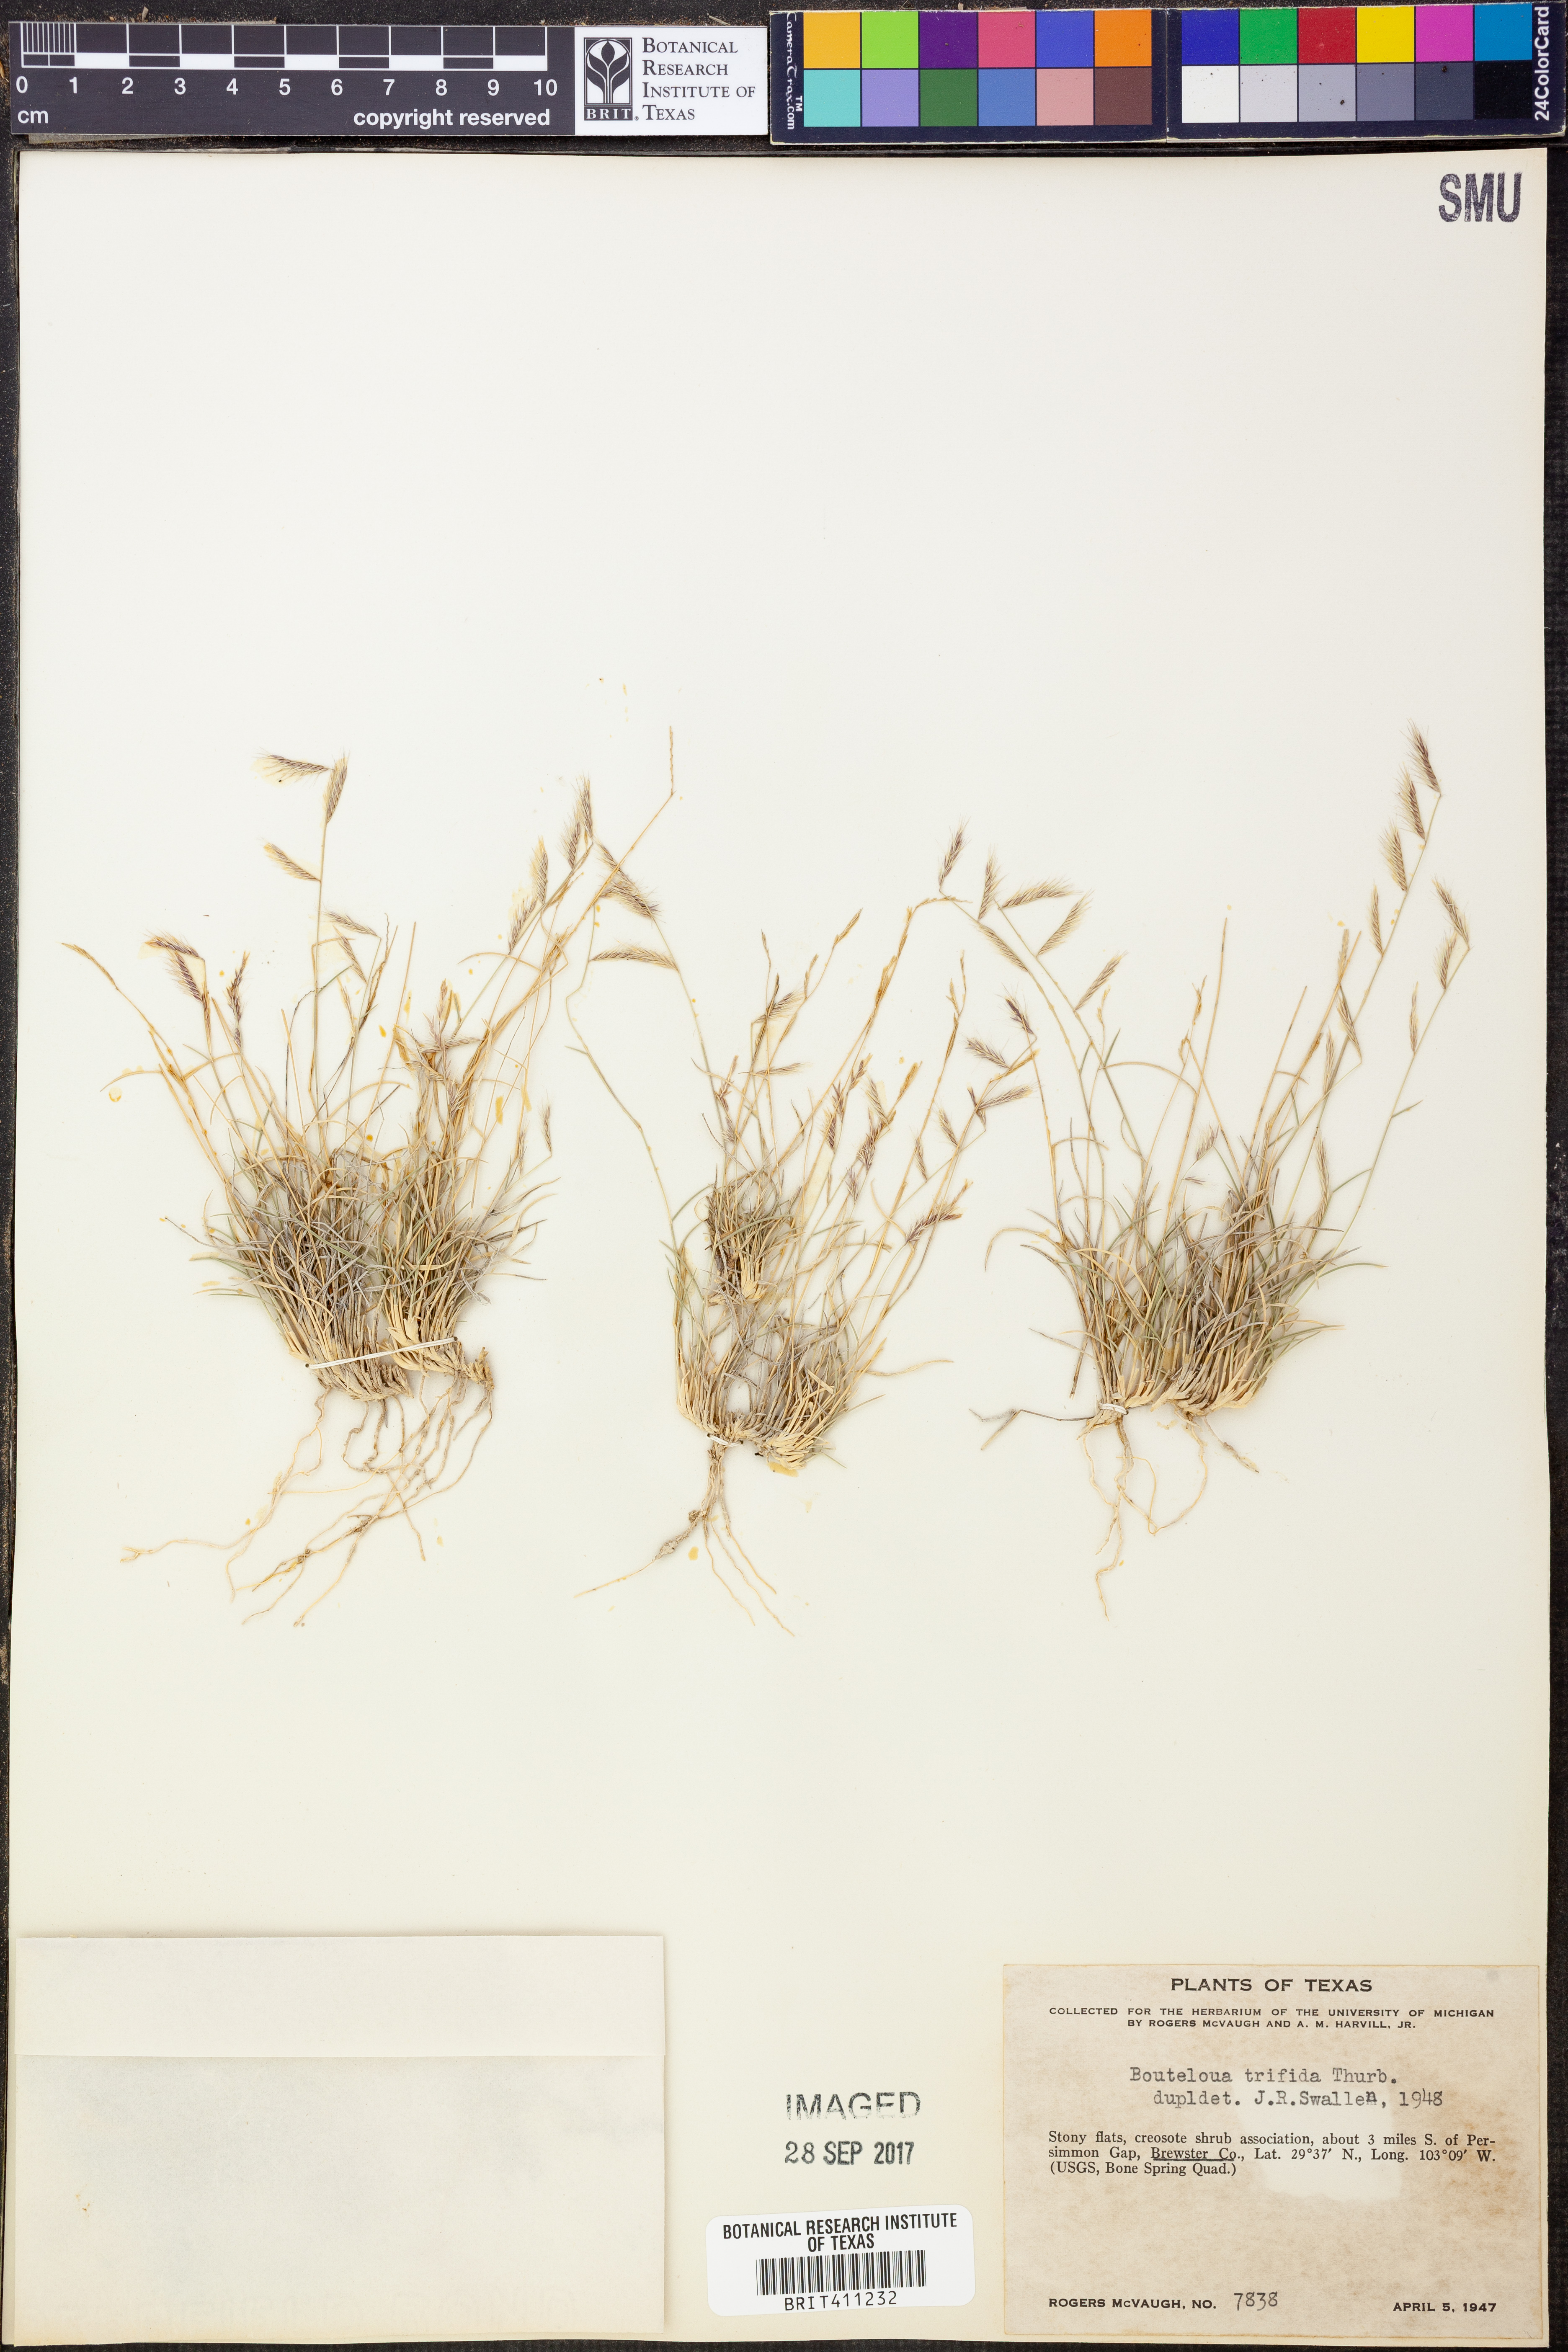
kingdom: Plantae
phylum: Tracheophyta
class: Liliopsida
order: Poales
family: Poaceae
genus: Bouteloua
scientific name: Bouteloua trifida
